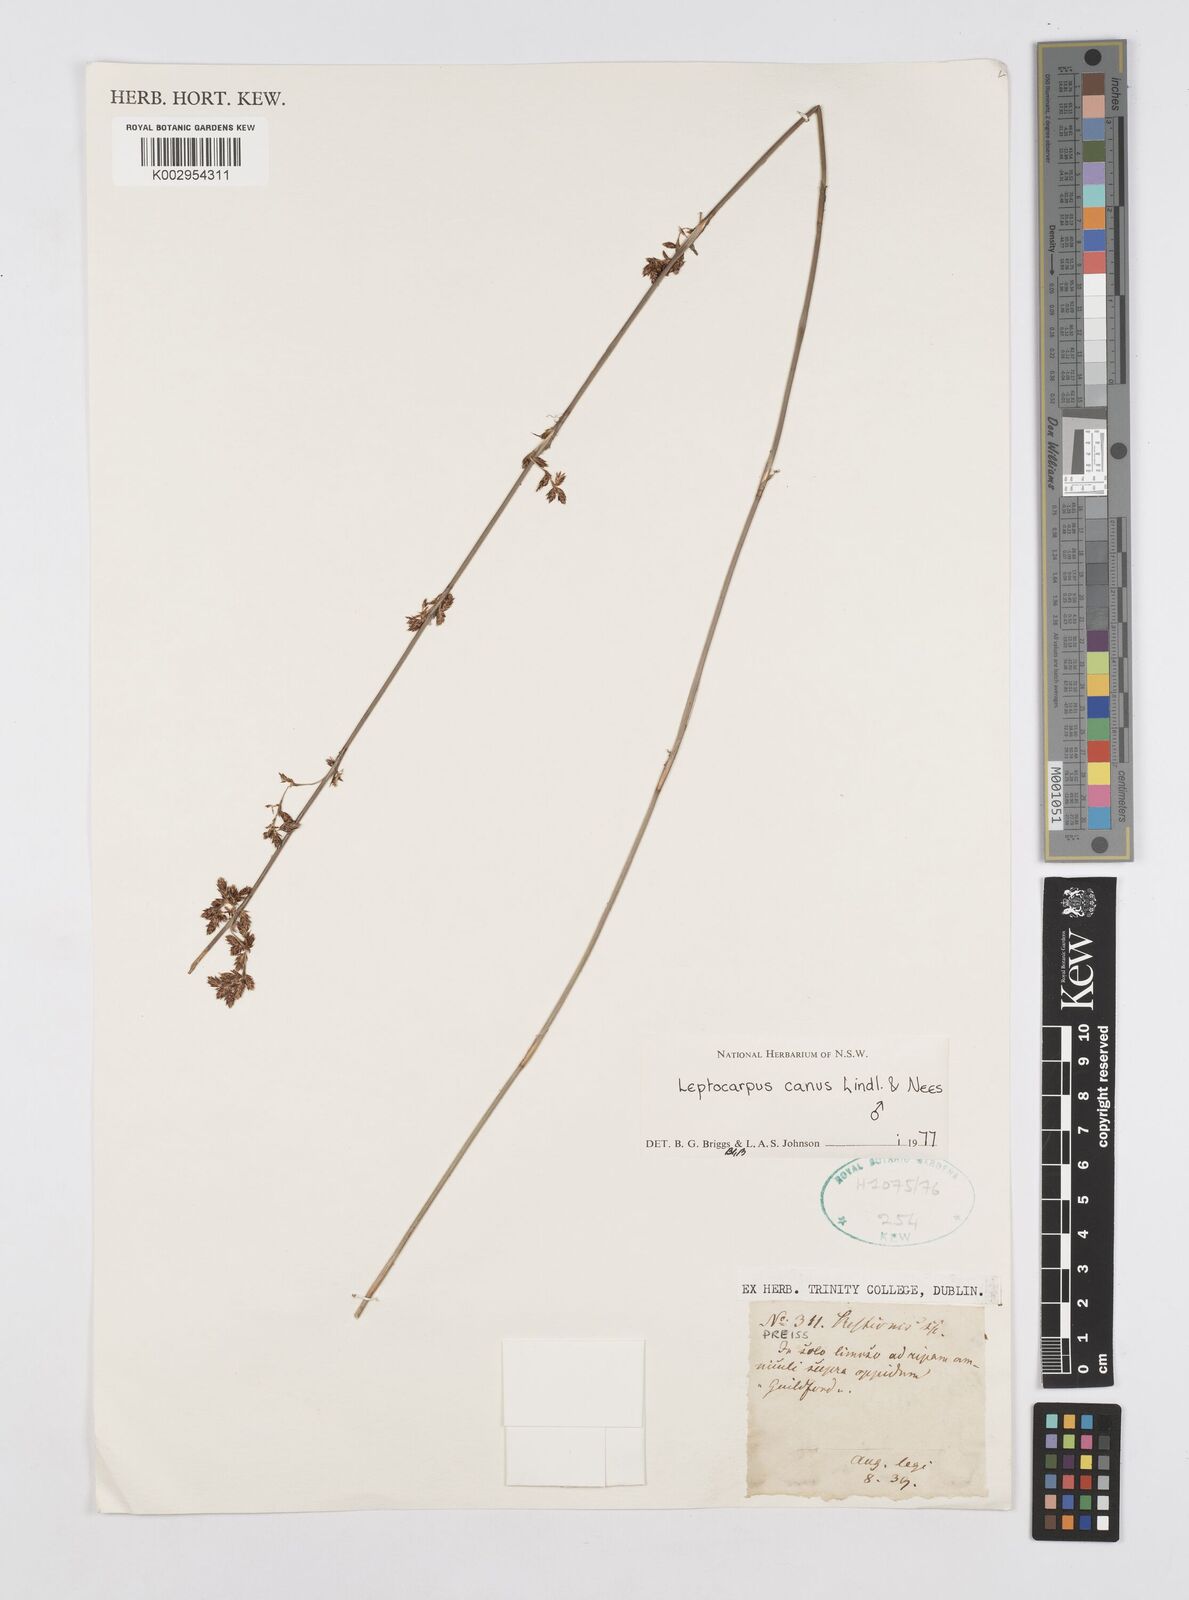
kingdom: Plantae
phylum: Tracheophyta
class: Liliopsida
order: Poales
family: Restionaceae
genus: Leptocarpus
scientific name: Leptocarpus canus
